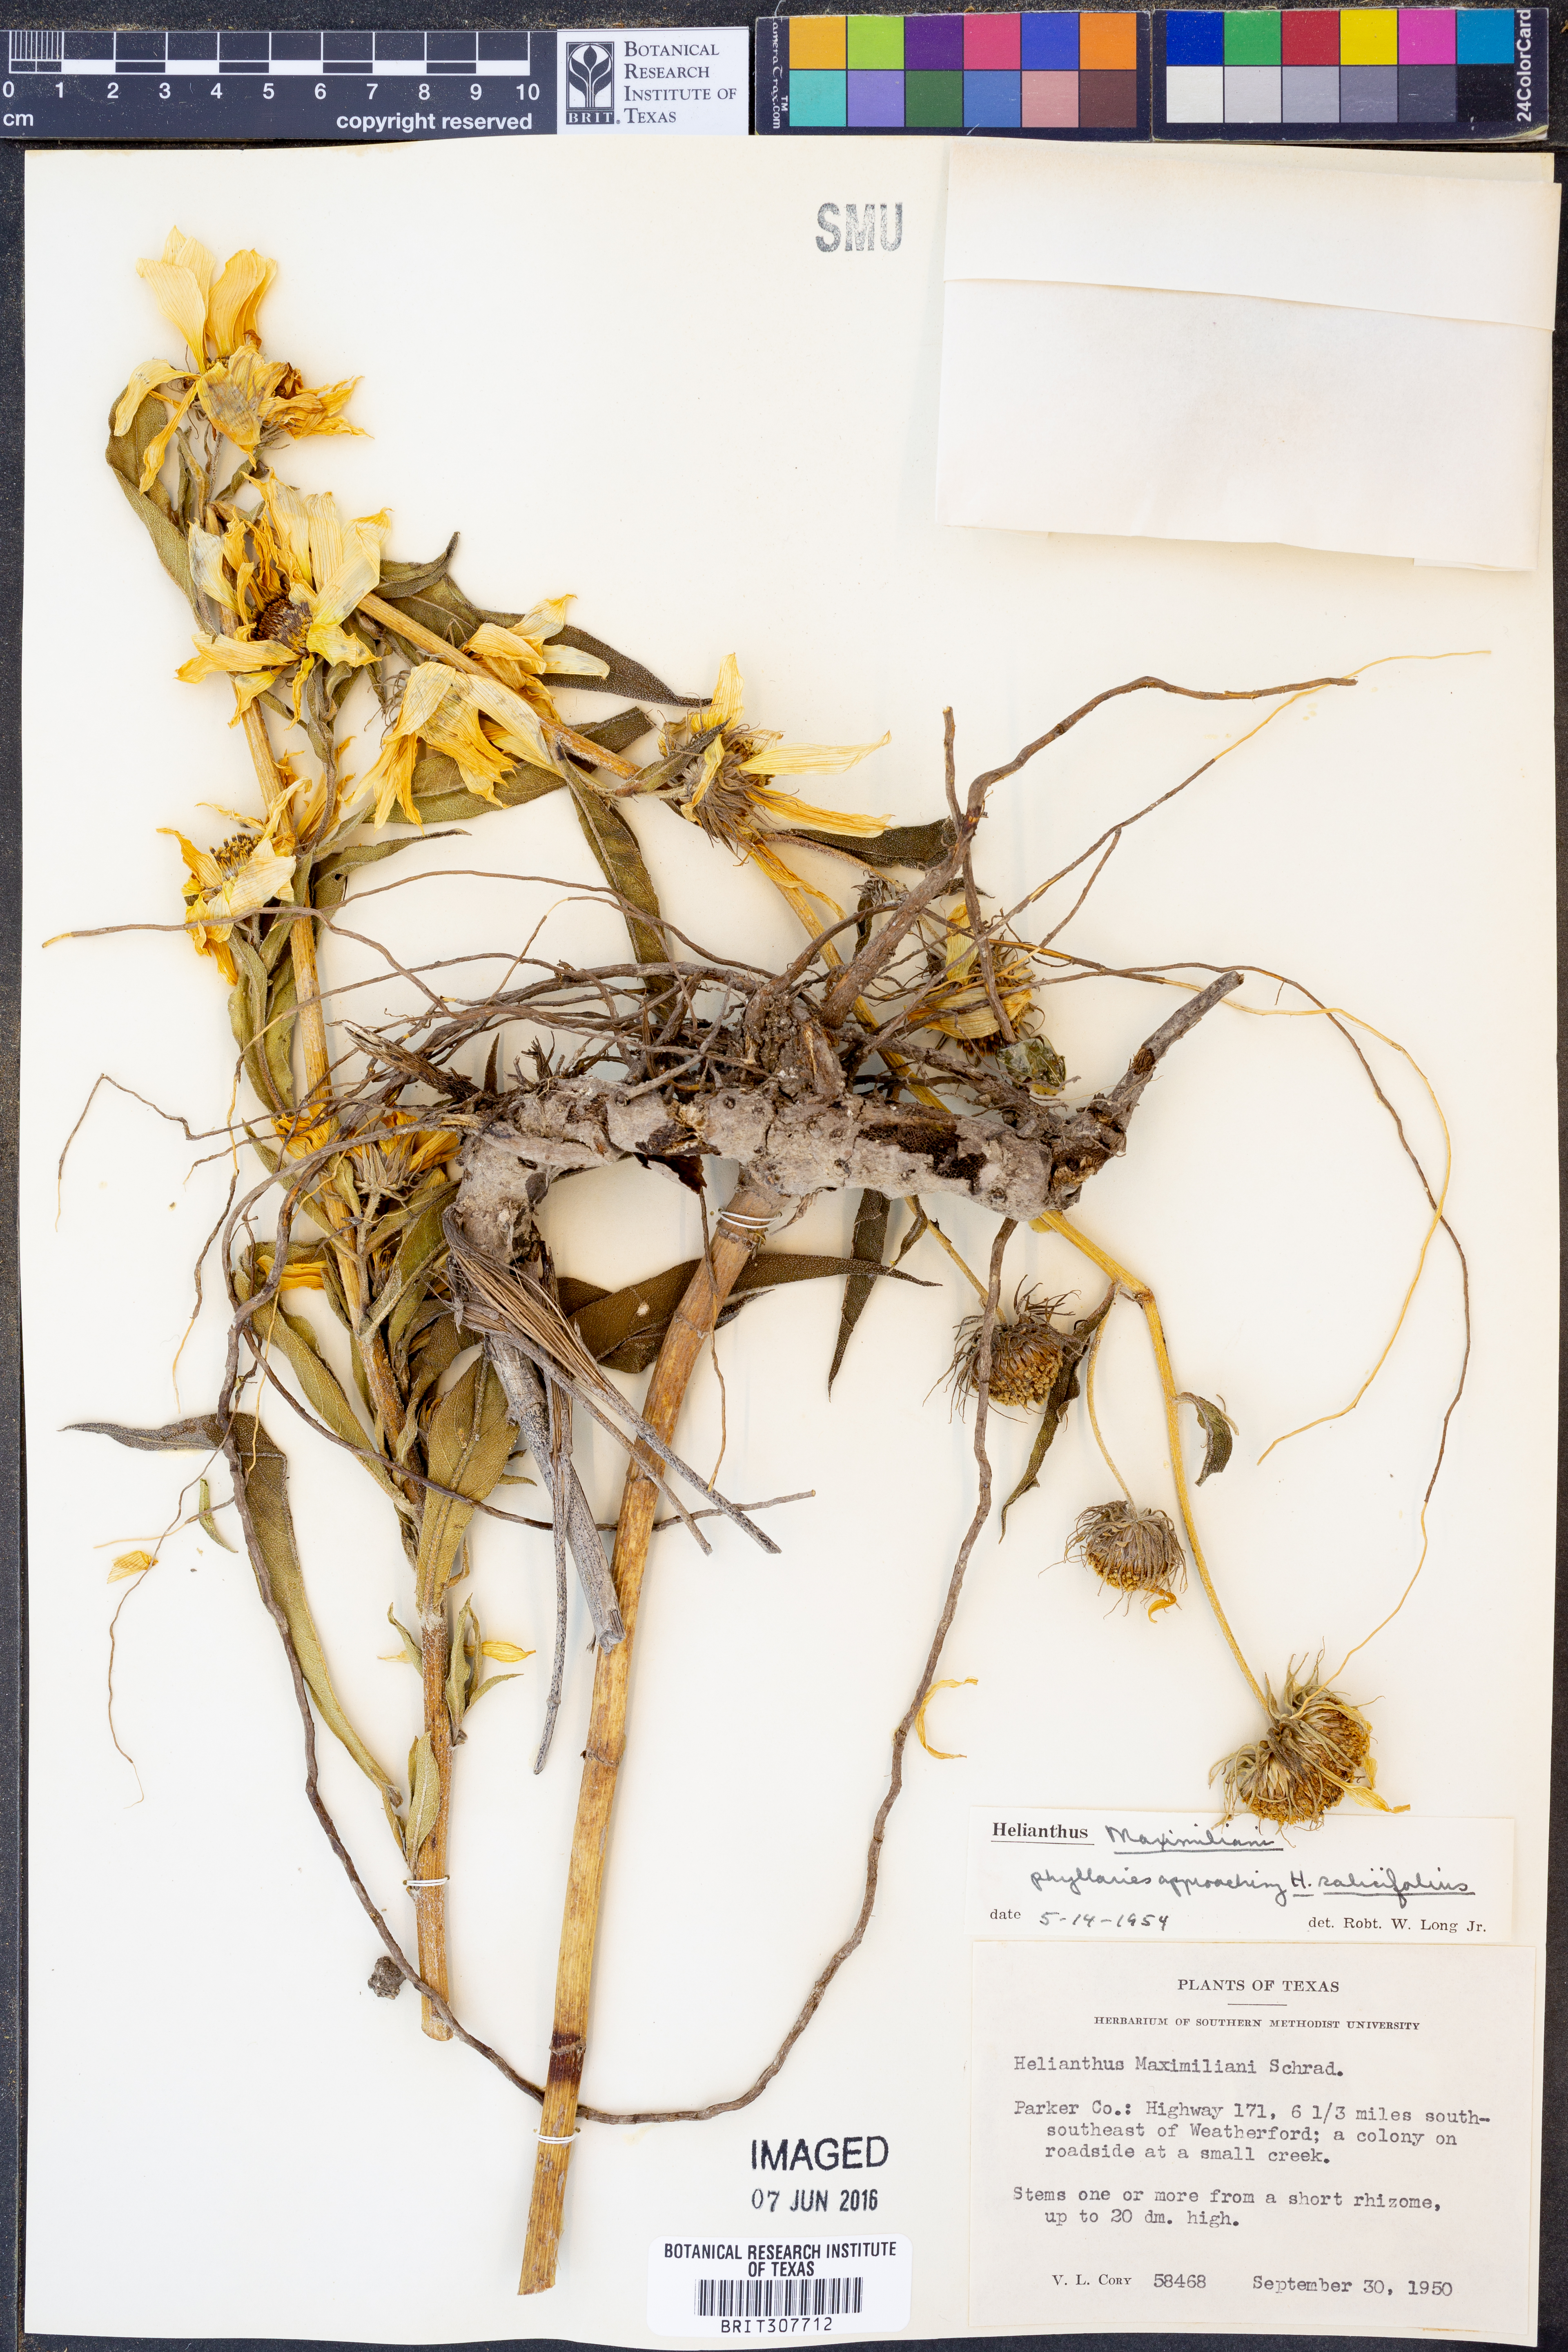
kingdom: Plantae
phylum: Tracheophyta
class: Magnoliopsida
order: Asterales
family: Asteraceae
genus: Helianthus
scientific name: Helianthus maximiliani
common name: Maximilian's sunflower
